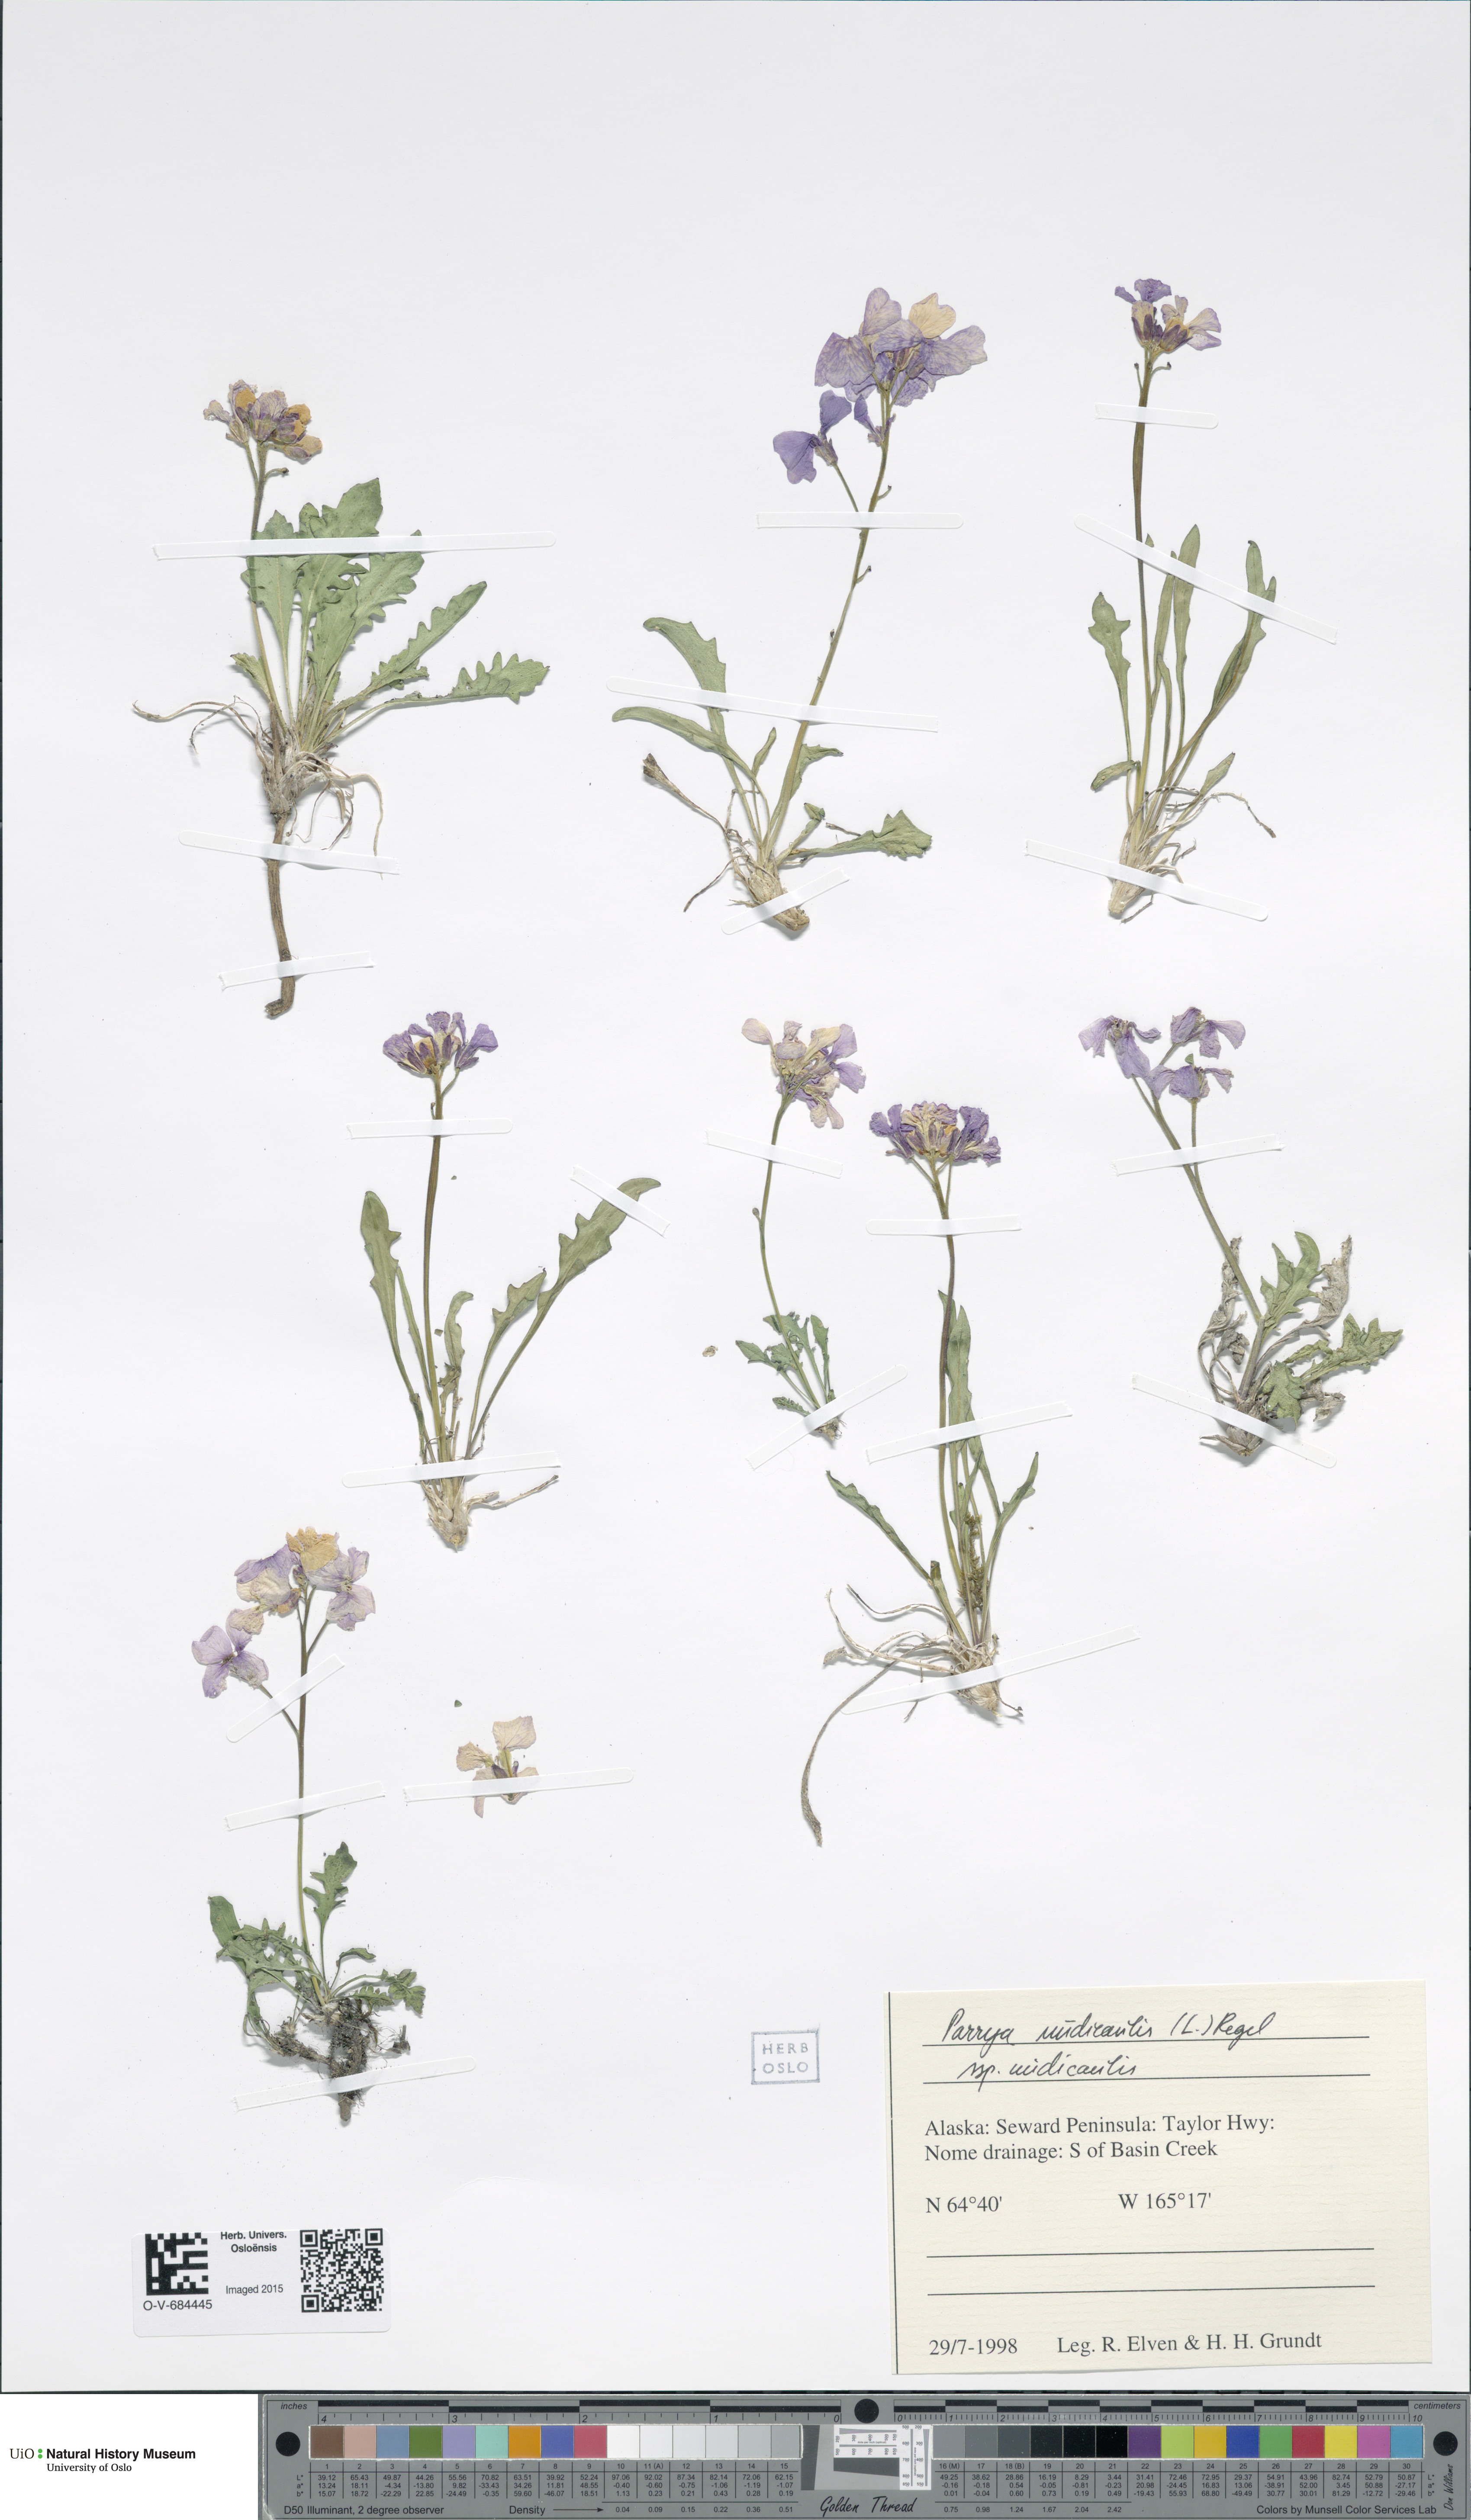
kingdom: Plantae
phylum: Tracheophyta
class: Magnoliopsida
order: Brassicales
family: Brassicaceae
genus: Parrya
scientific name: Parrya nudicaulis
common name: Naked-stemmed false wallflower
